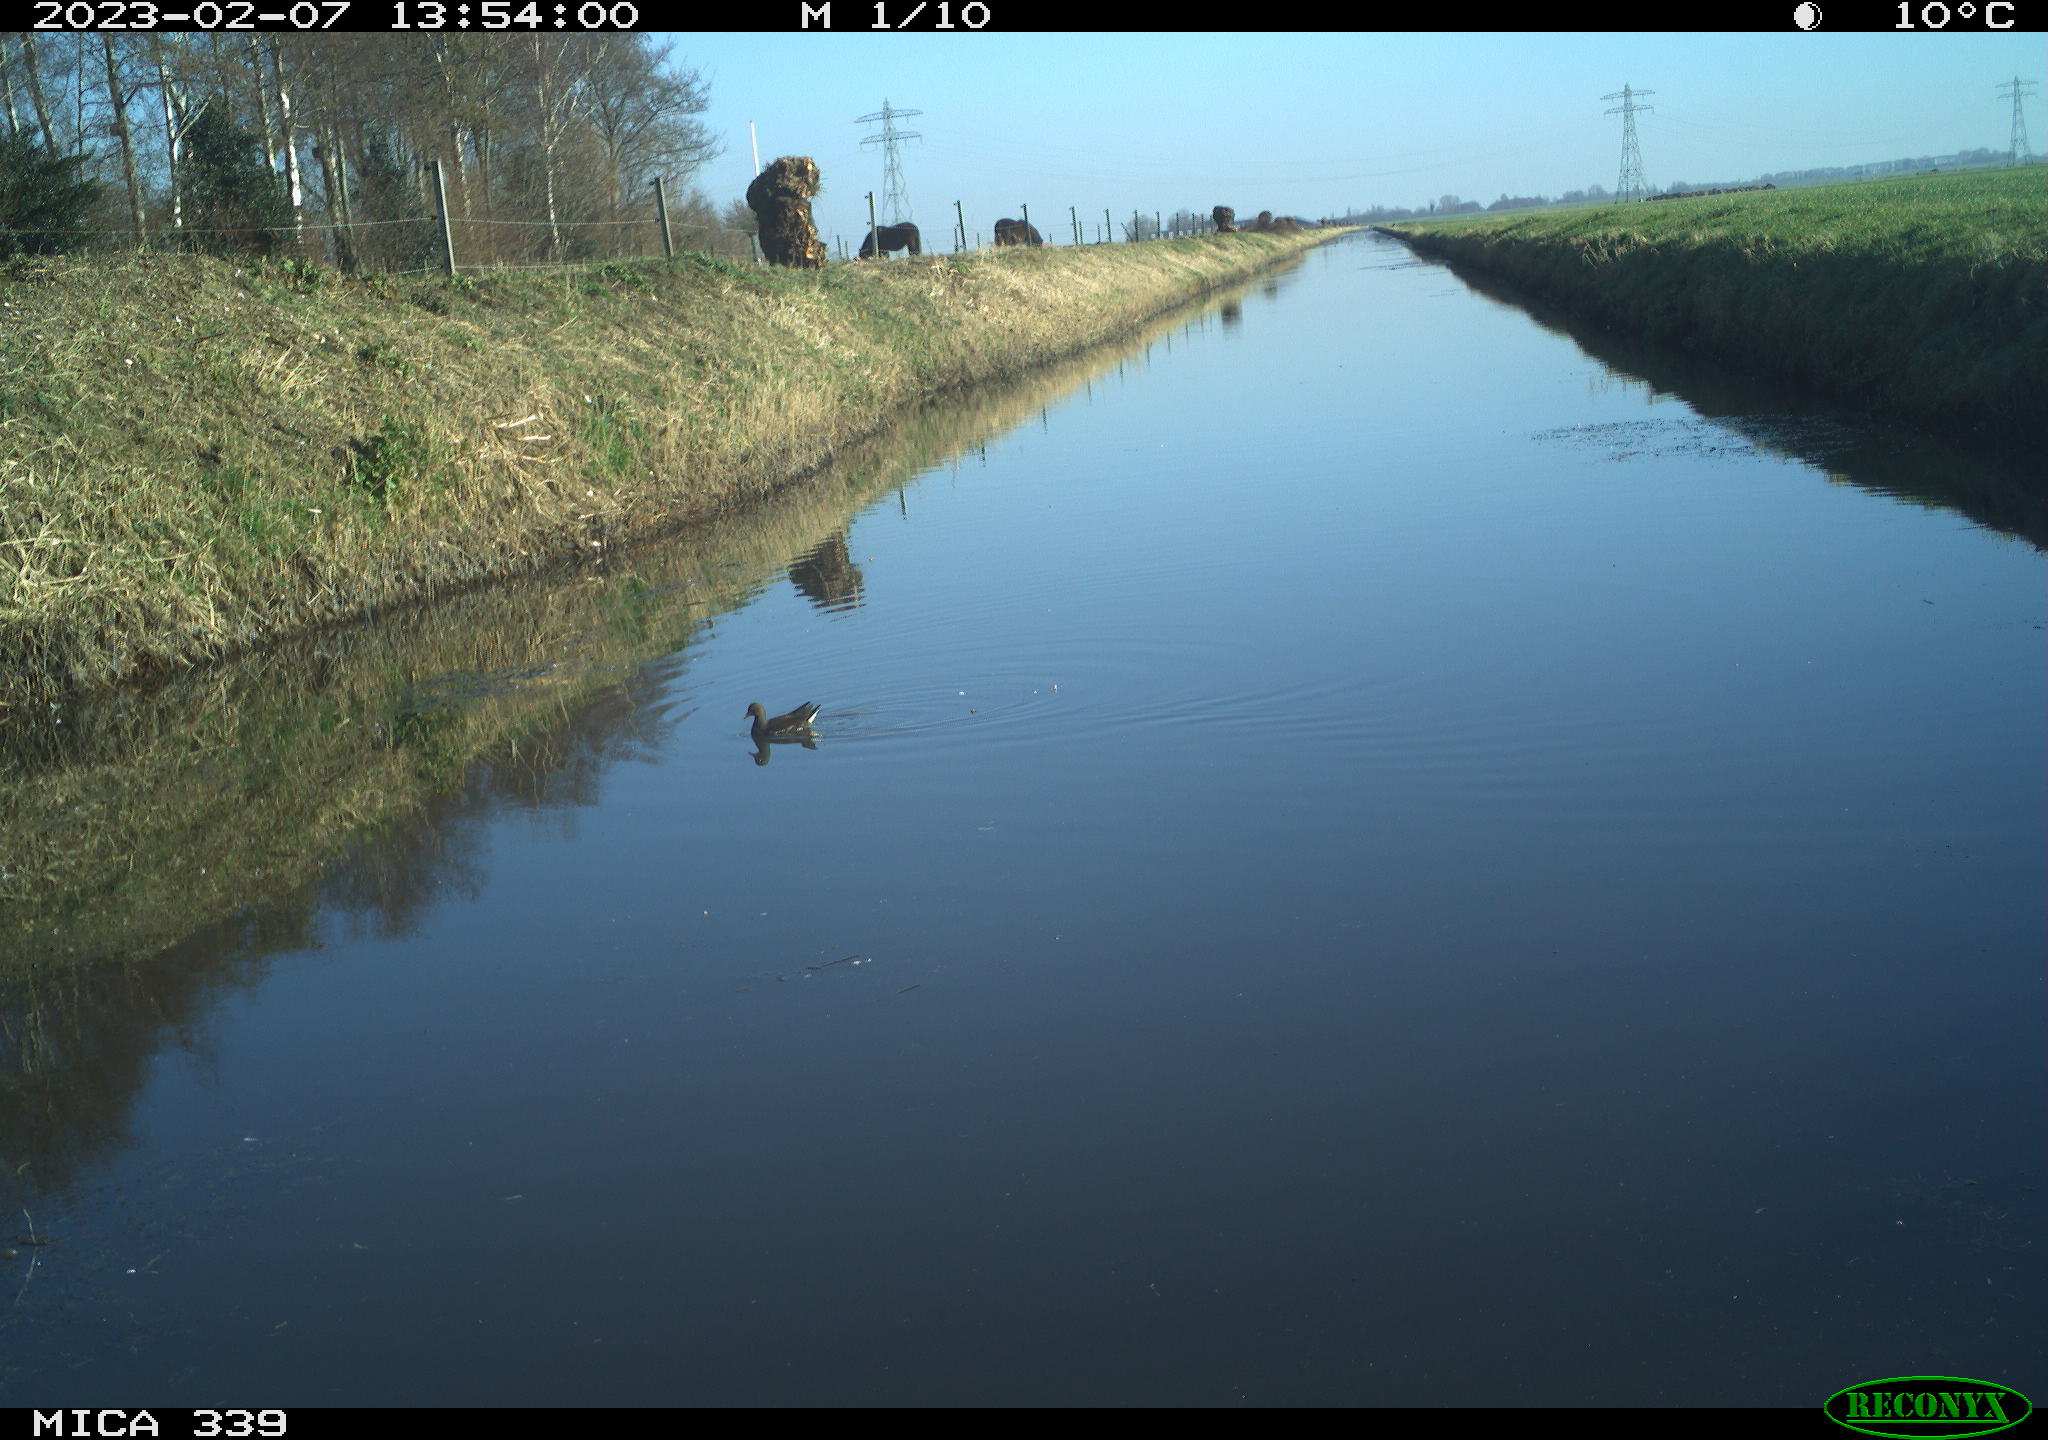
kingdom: Animalia
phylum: Chordata
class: Aves
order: Gruiformes
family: Rallidae
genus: Gallinula
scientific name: Gallinula chloropus
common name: Common moorhen
